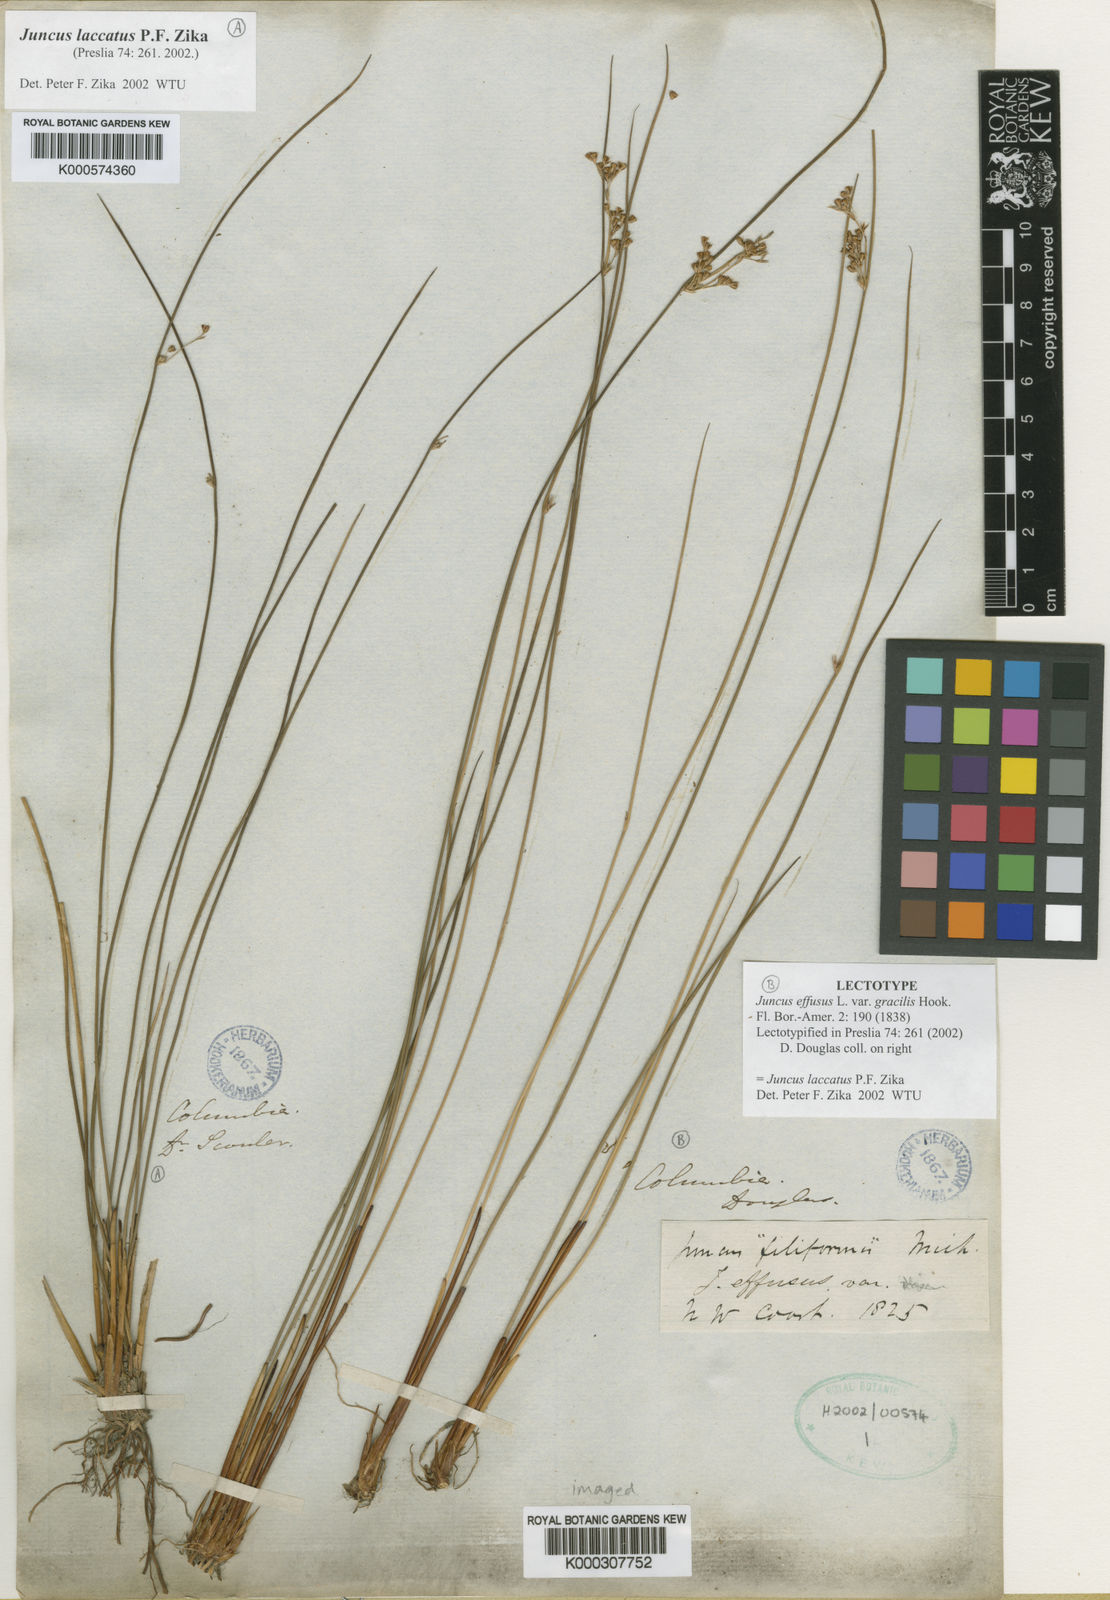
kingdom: Plantae
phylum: Tracheophyta
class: Liliopsida
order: Poales
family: Juncaceae
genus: Juncus
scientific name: Juncus laccatus
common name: Shiny rush
